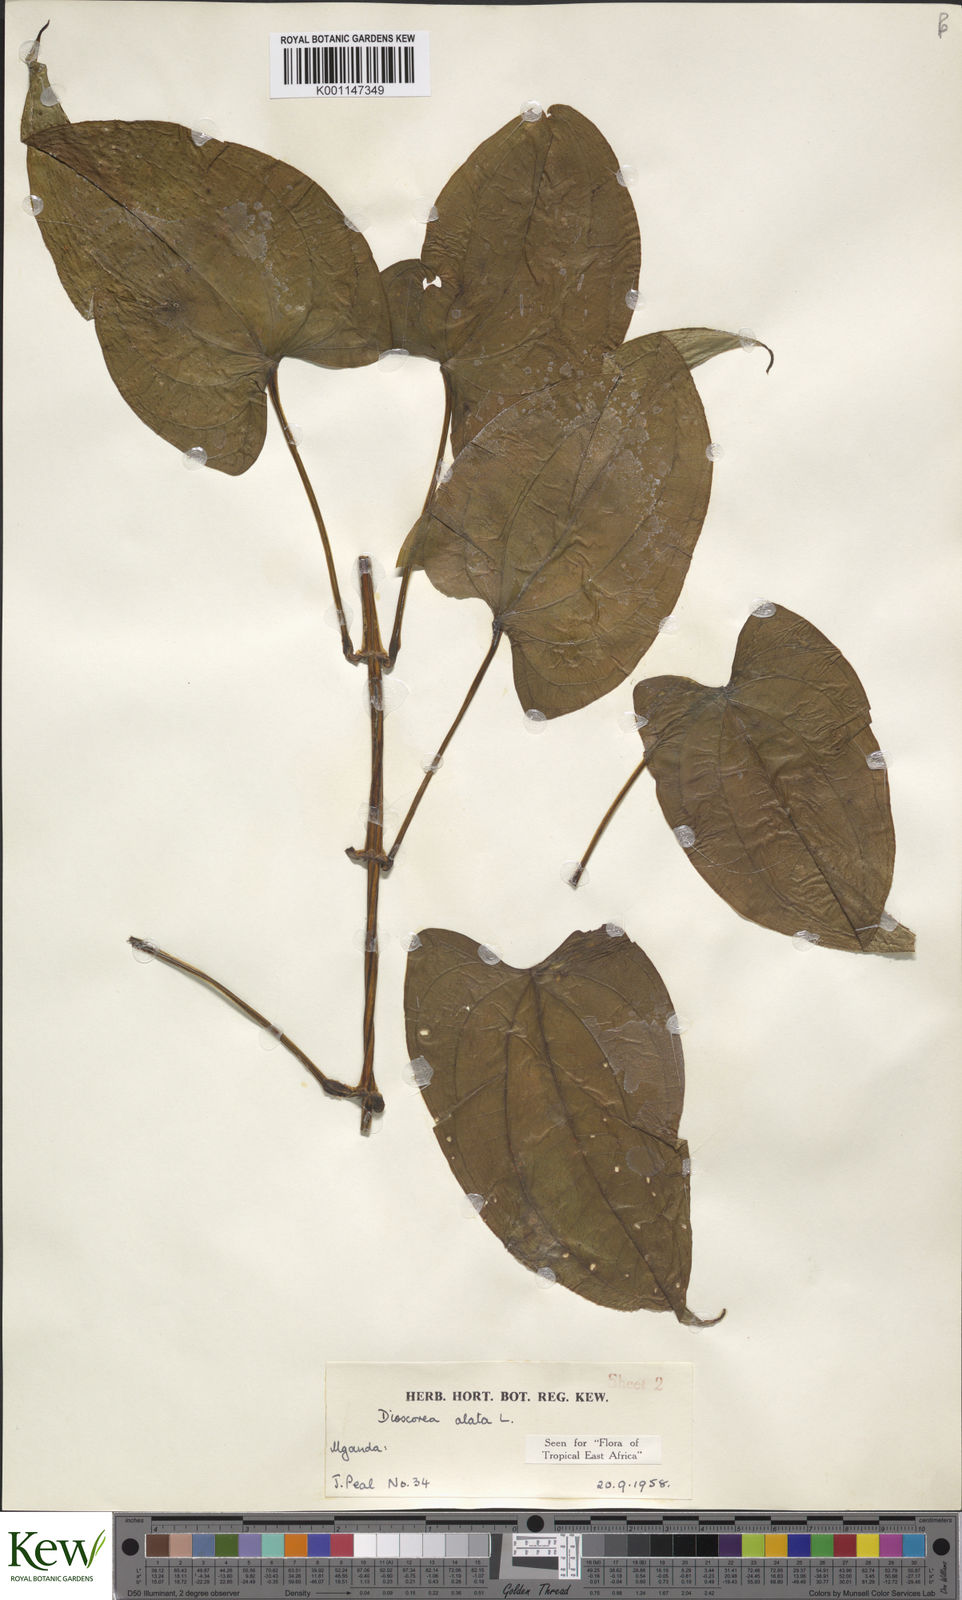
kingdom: Plantae
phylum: Tracheophyta
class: Liliopsida
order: Dioscoreales
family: Dioscoreaceae
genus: Dioscorea
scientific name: Dioscorea alata
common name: Water yam
